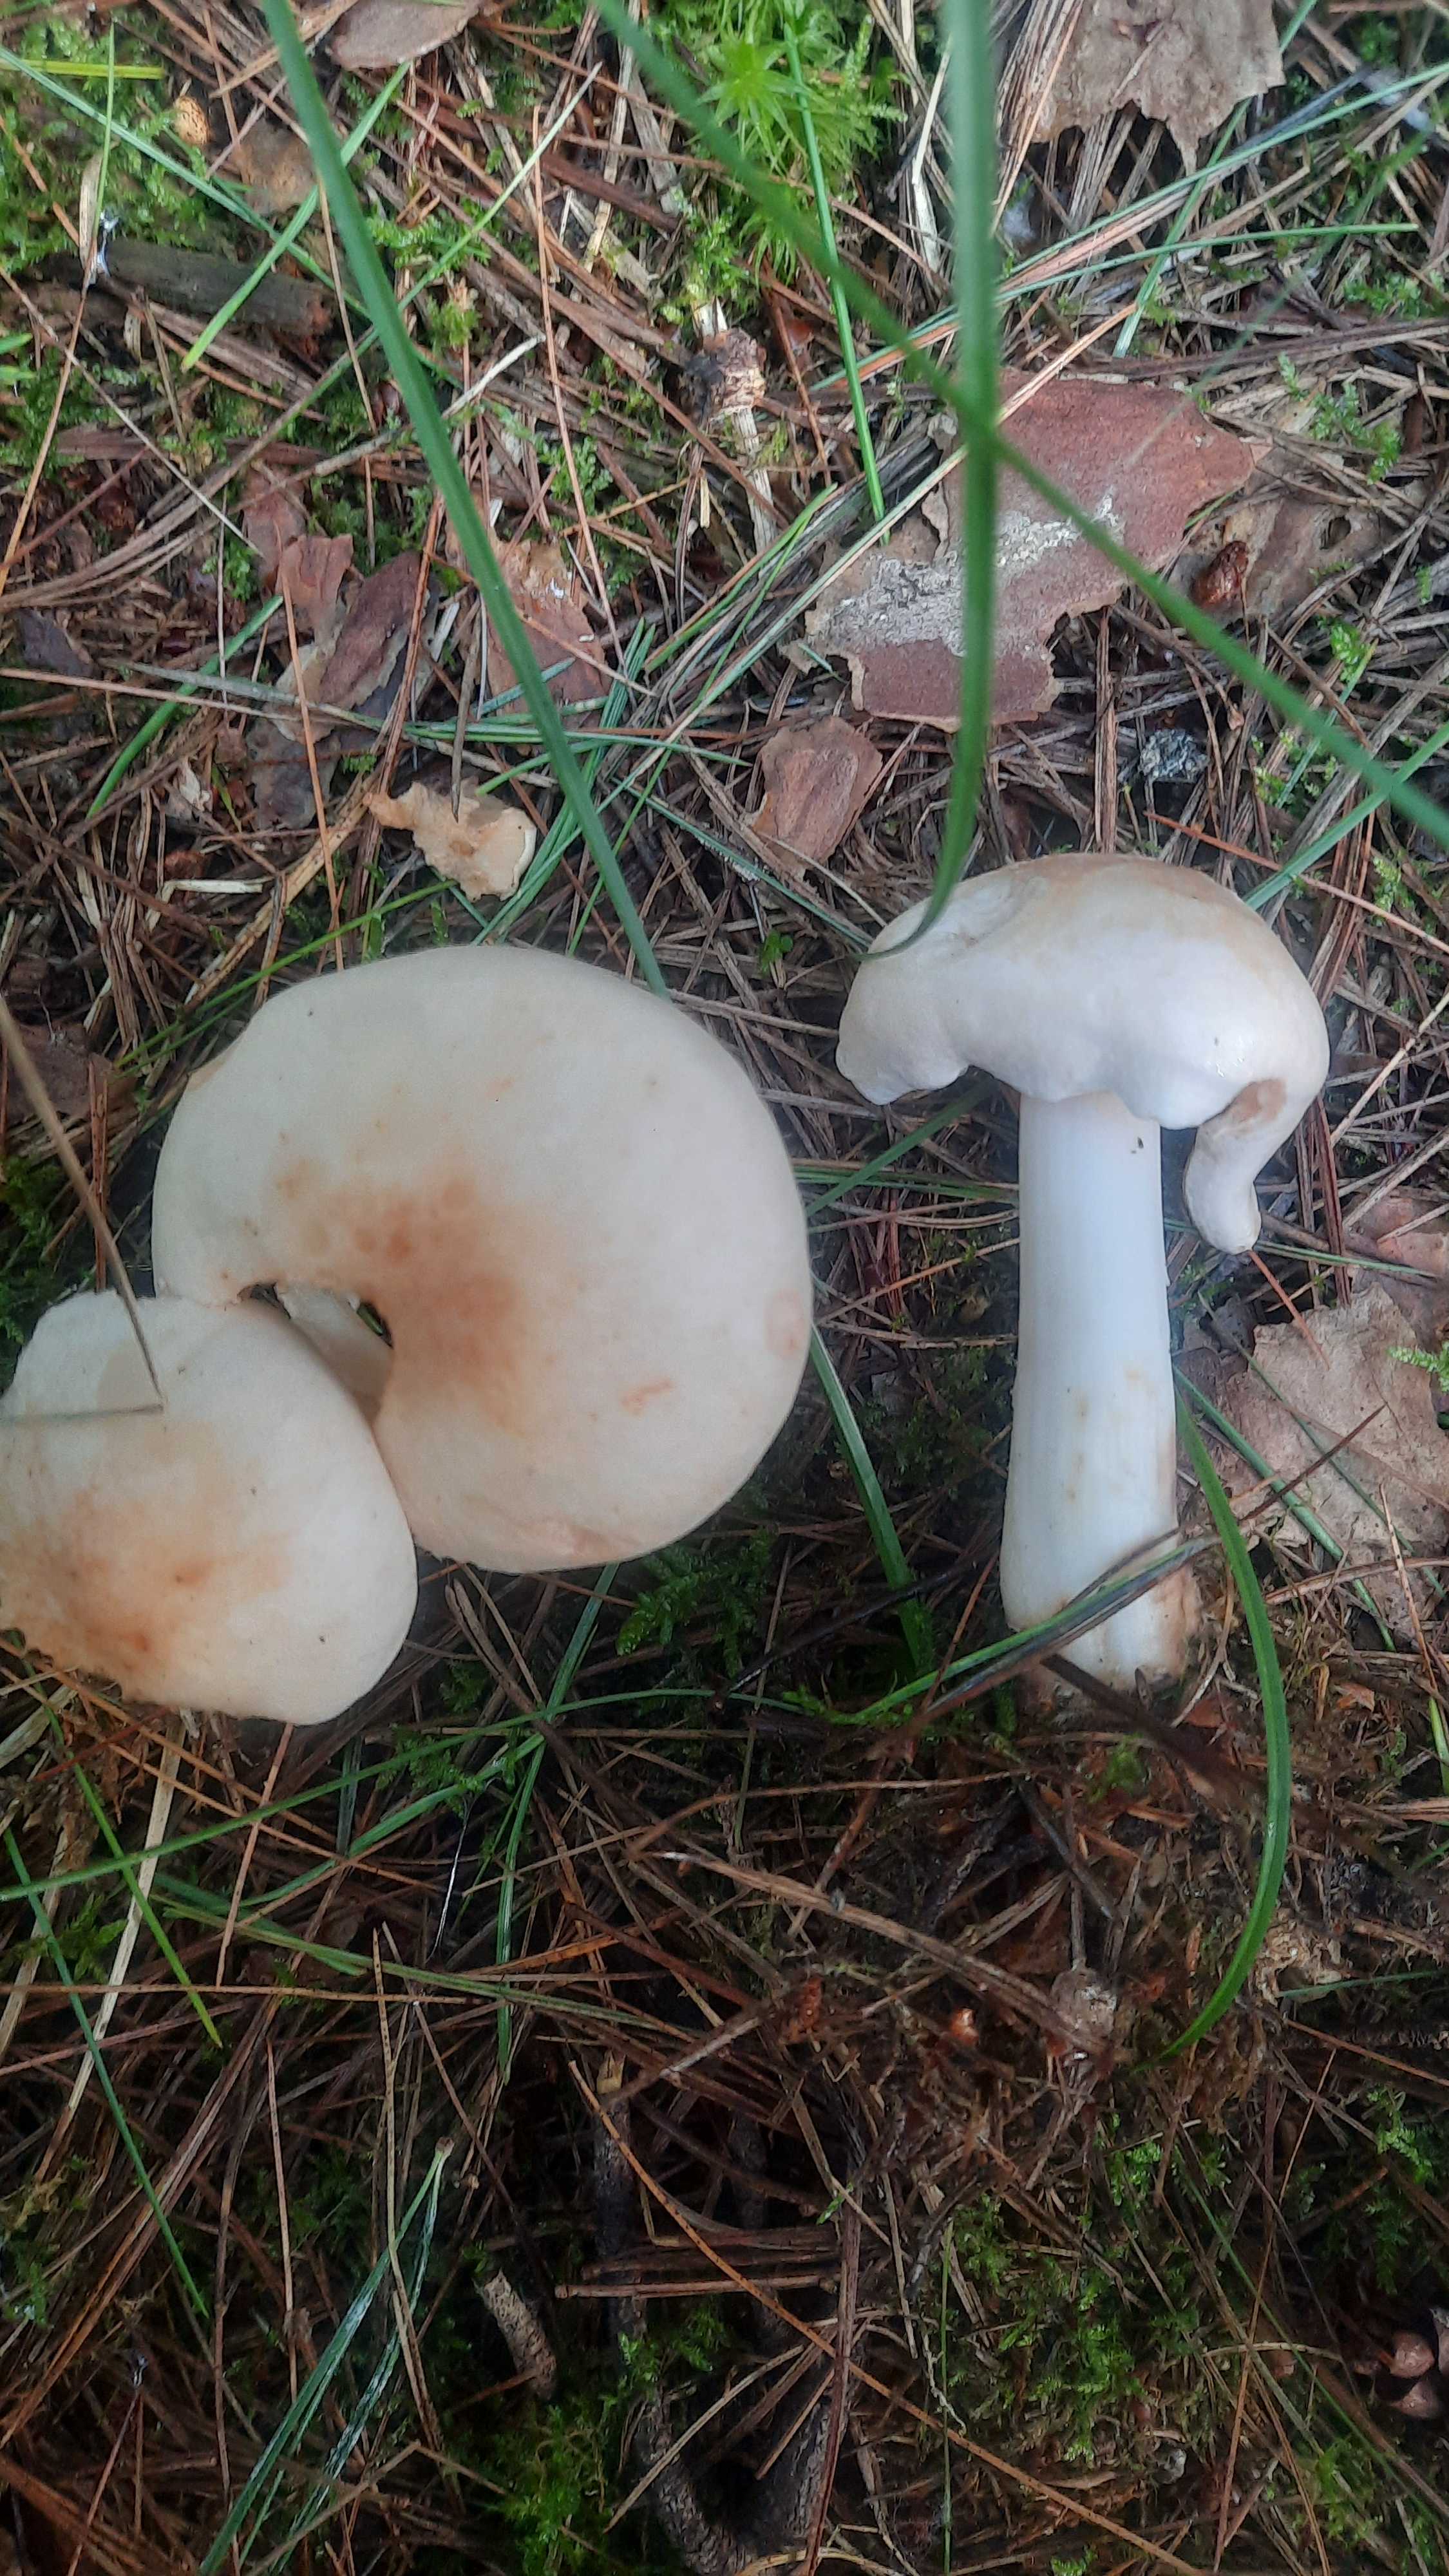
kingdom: Fungi
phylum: Basidiomycota
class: Agaricomycetes
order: Agaricales
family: Omphalotaceae
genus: Rhodocollybia
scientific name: Rhodocollybia maculata
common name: plettet fladhat
